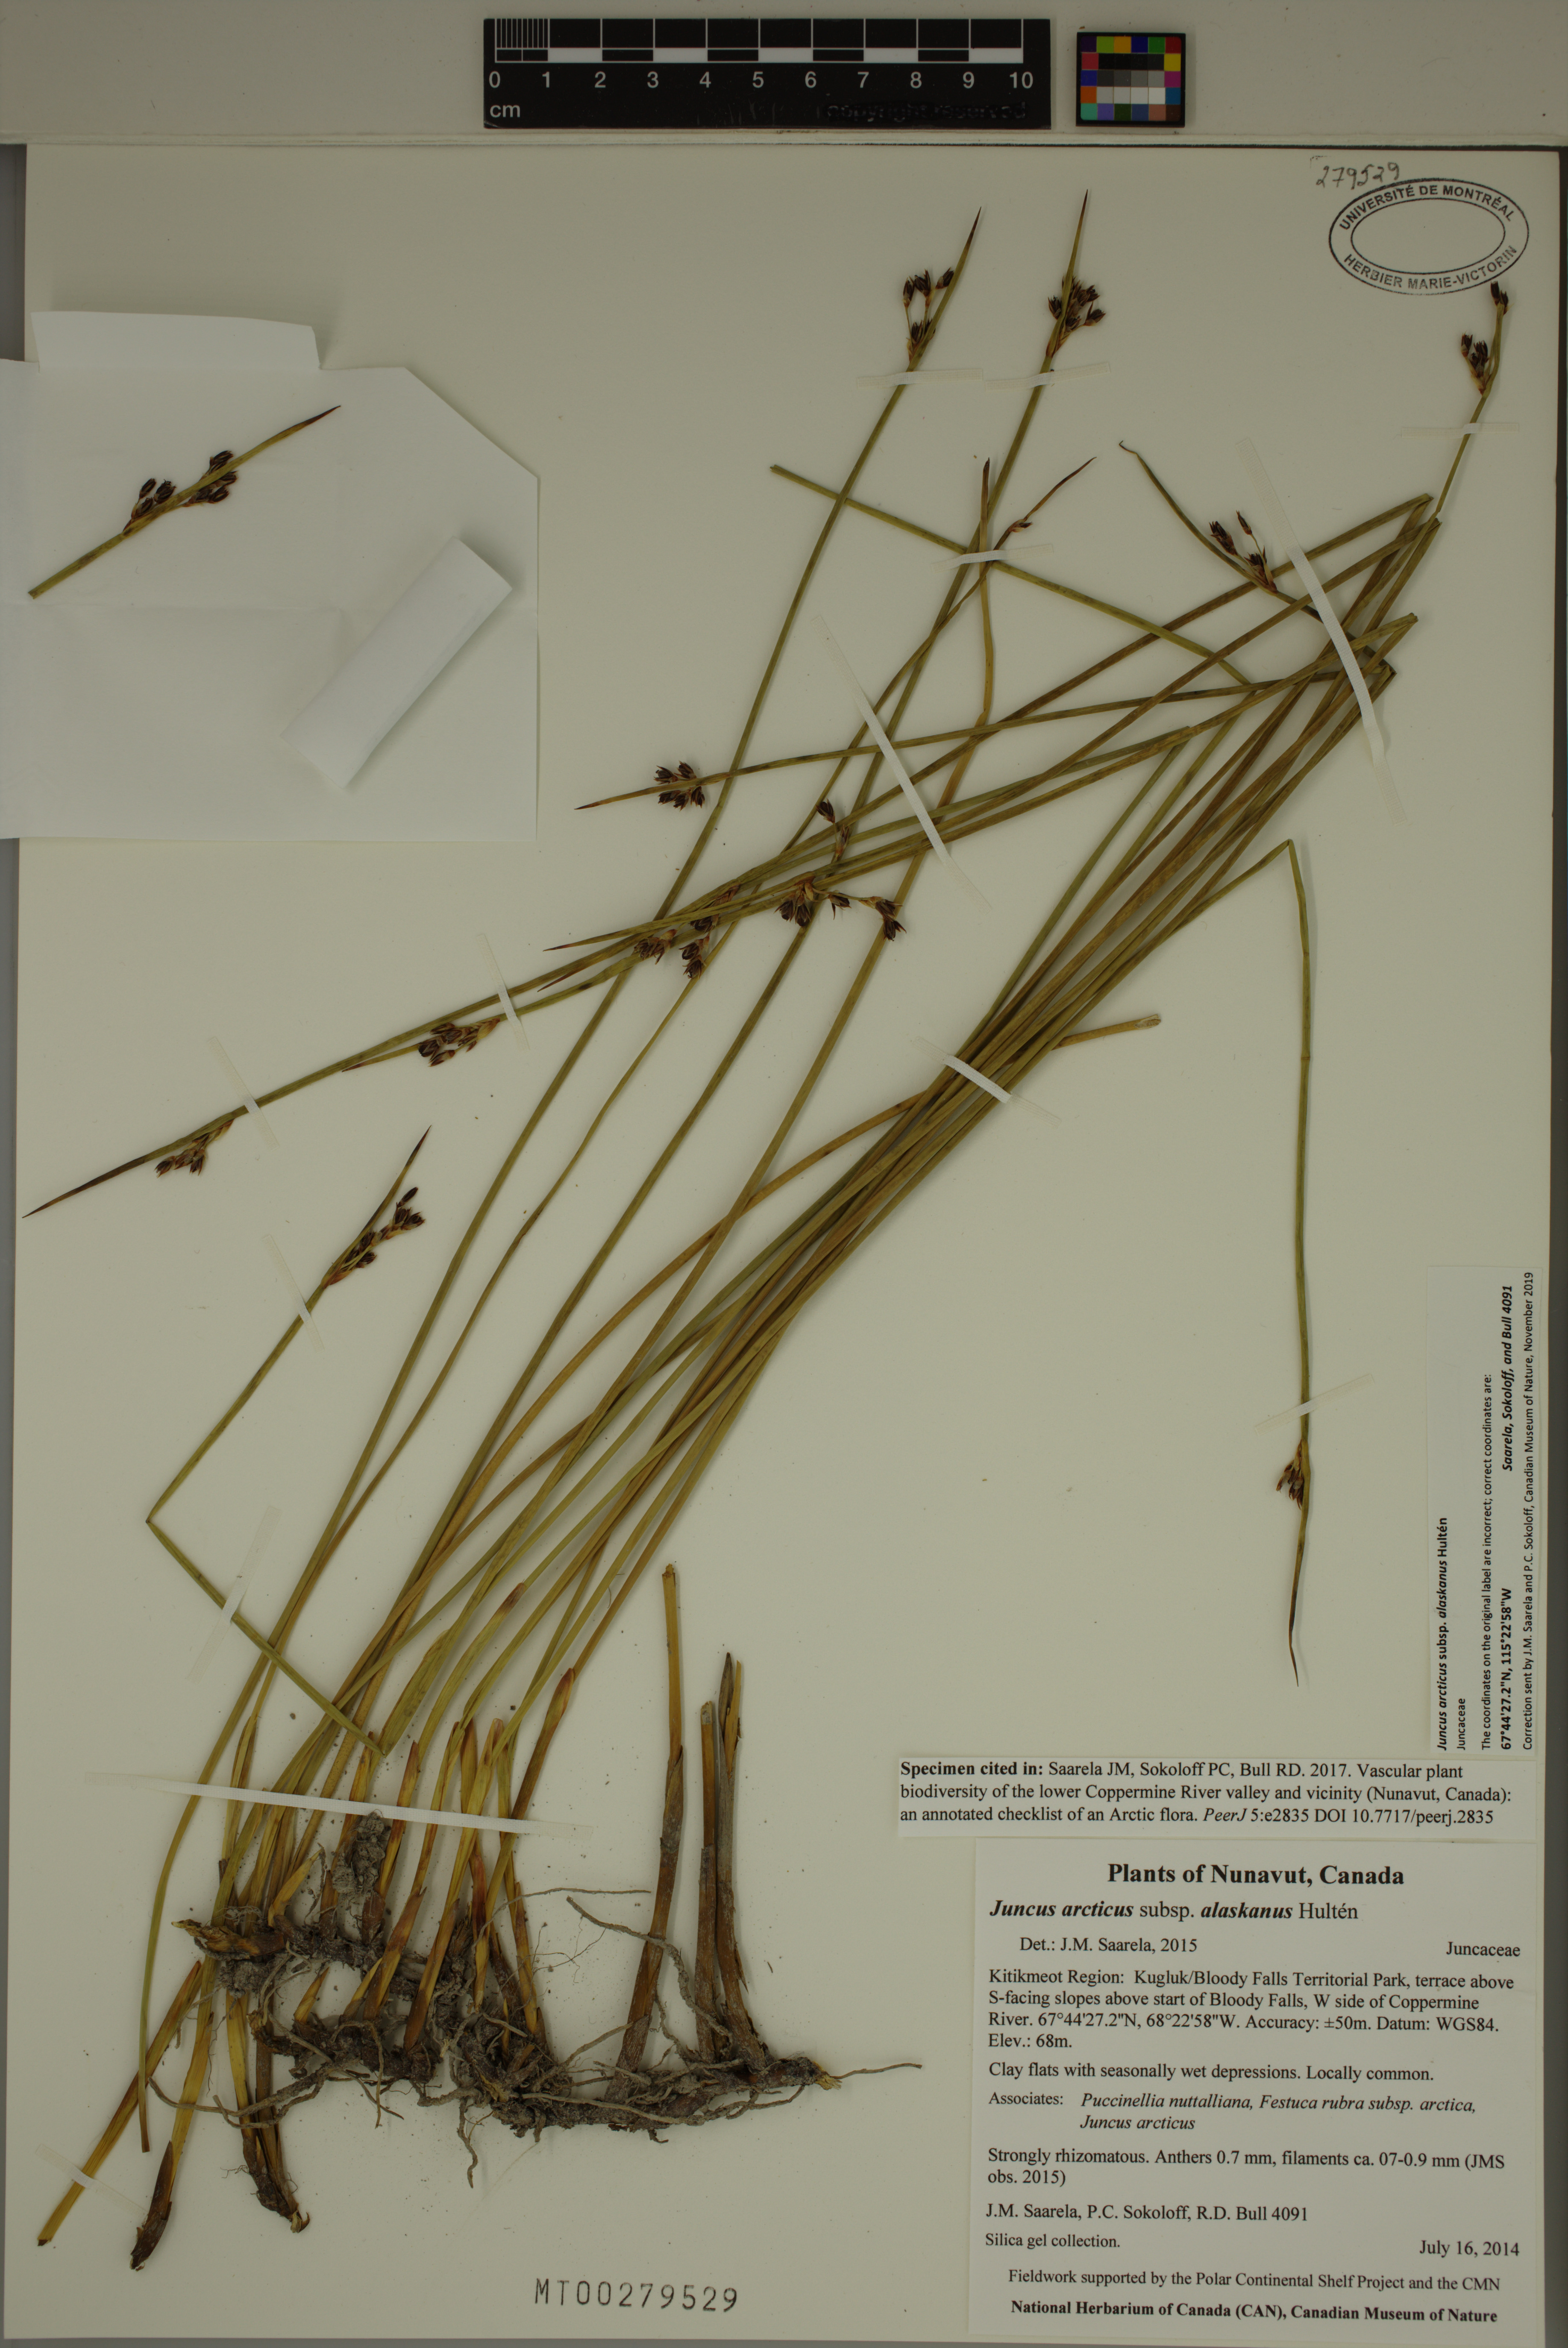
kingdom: Plantae
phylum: Tracheophyta
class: Liliopsida
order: Poales
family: Juncaceae
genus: Juncus
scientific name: Juncus arcticus
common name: Arctic rush
